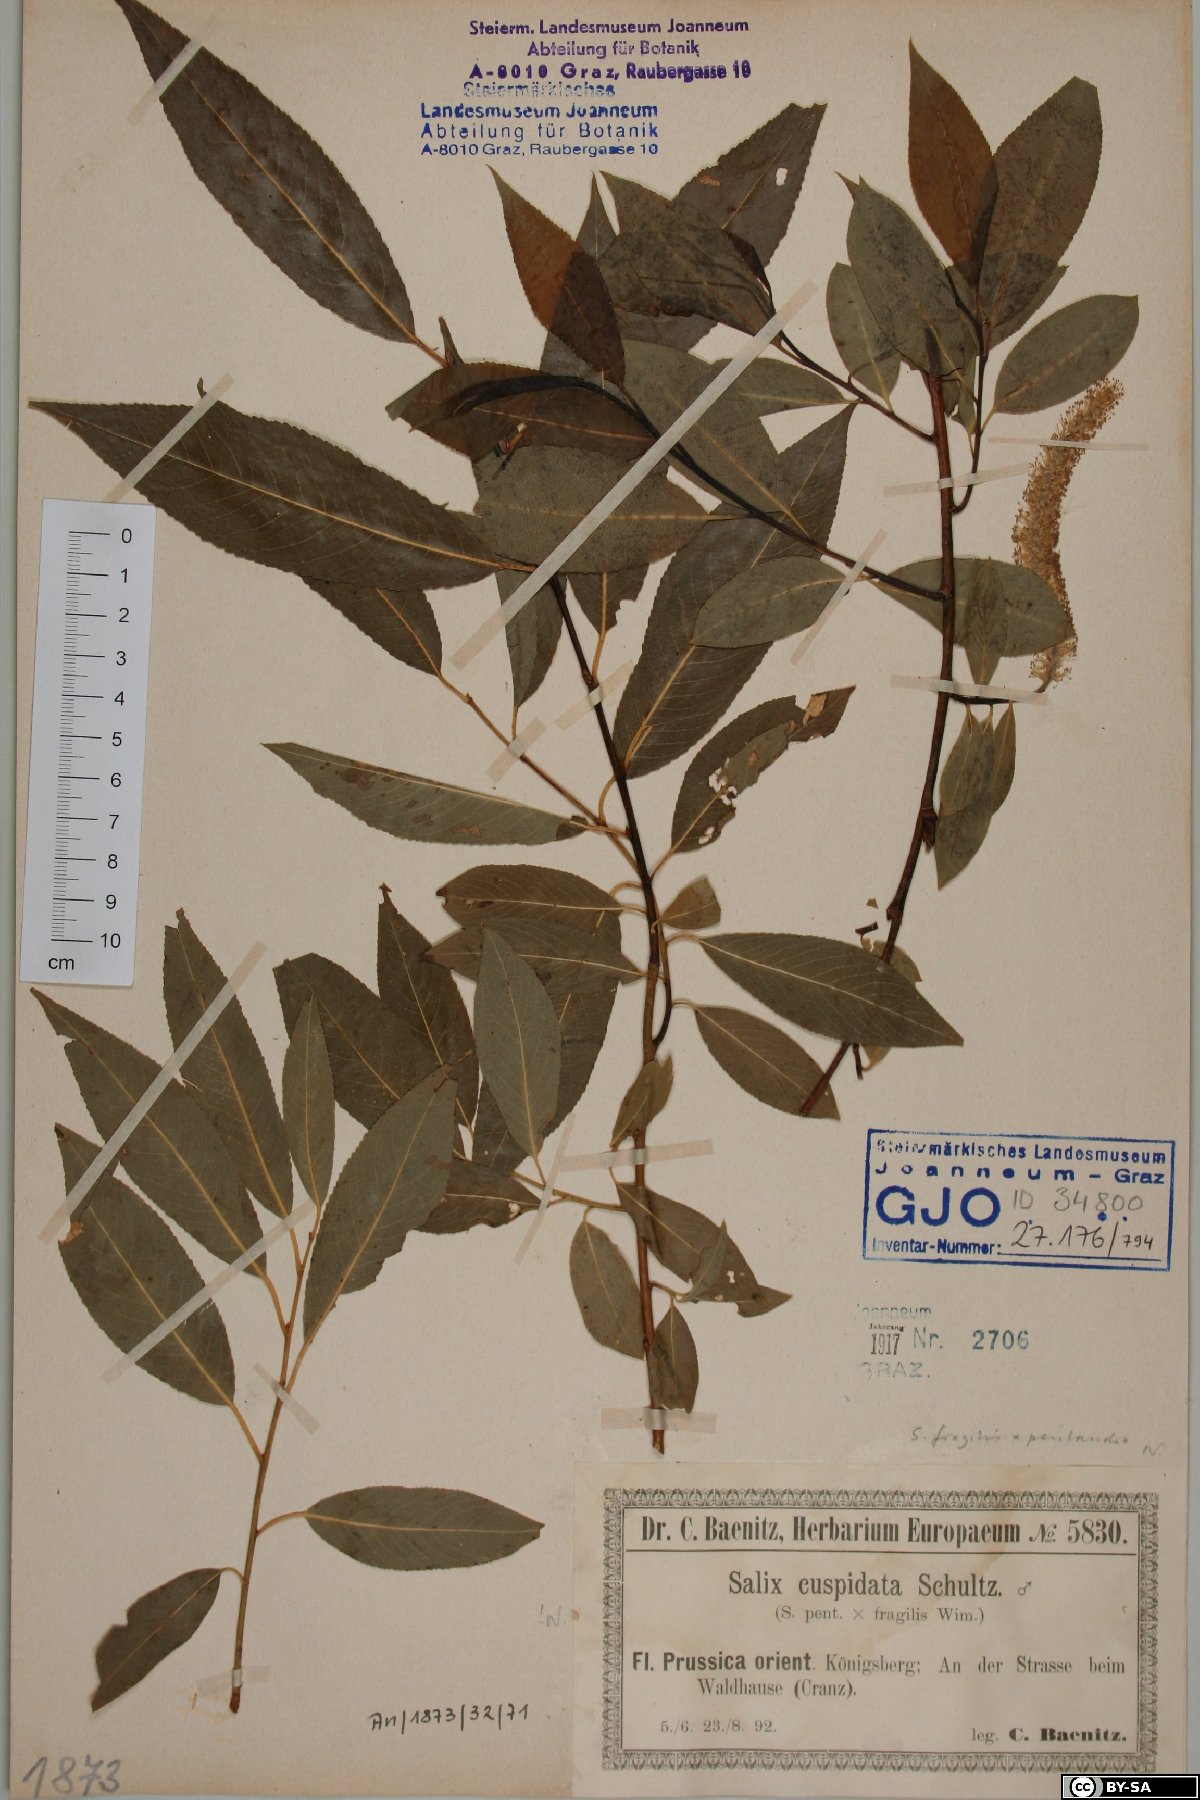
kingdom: Plantae
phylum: Tracheophyta
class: Magnoliopsida
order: Malpighiales
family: Salicaceae
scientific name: Salicaceae
